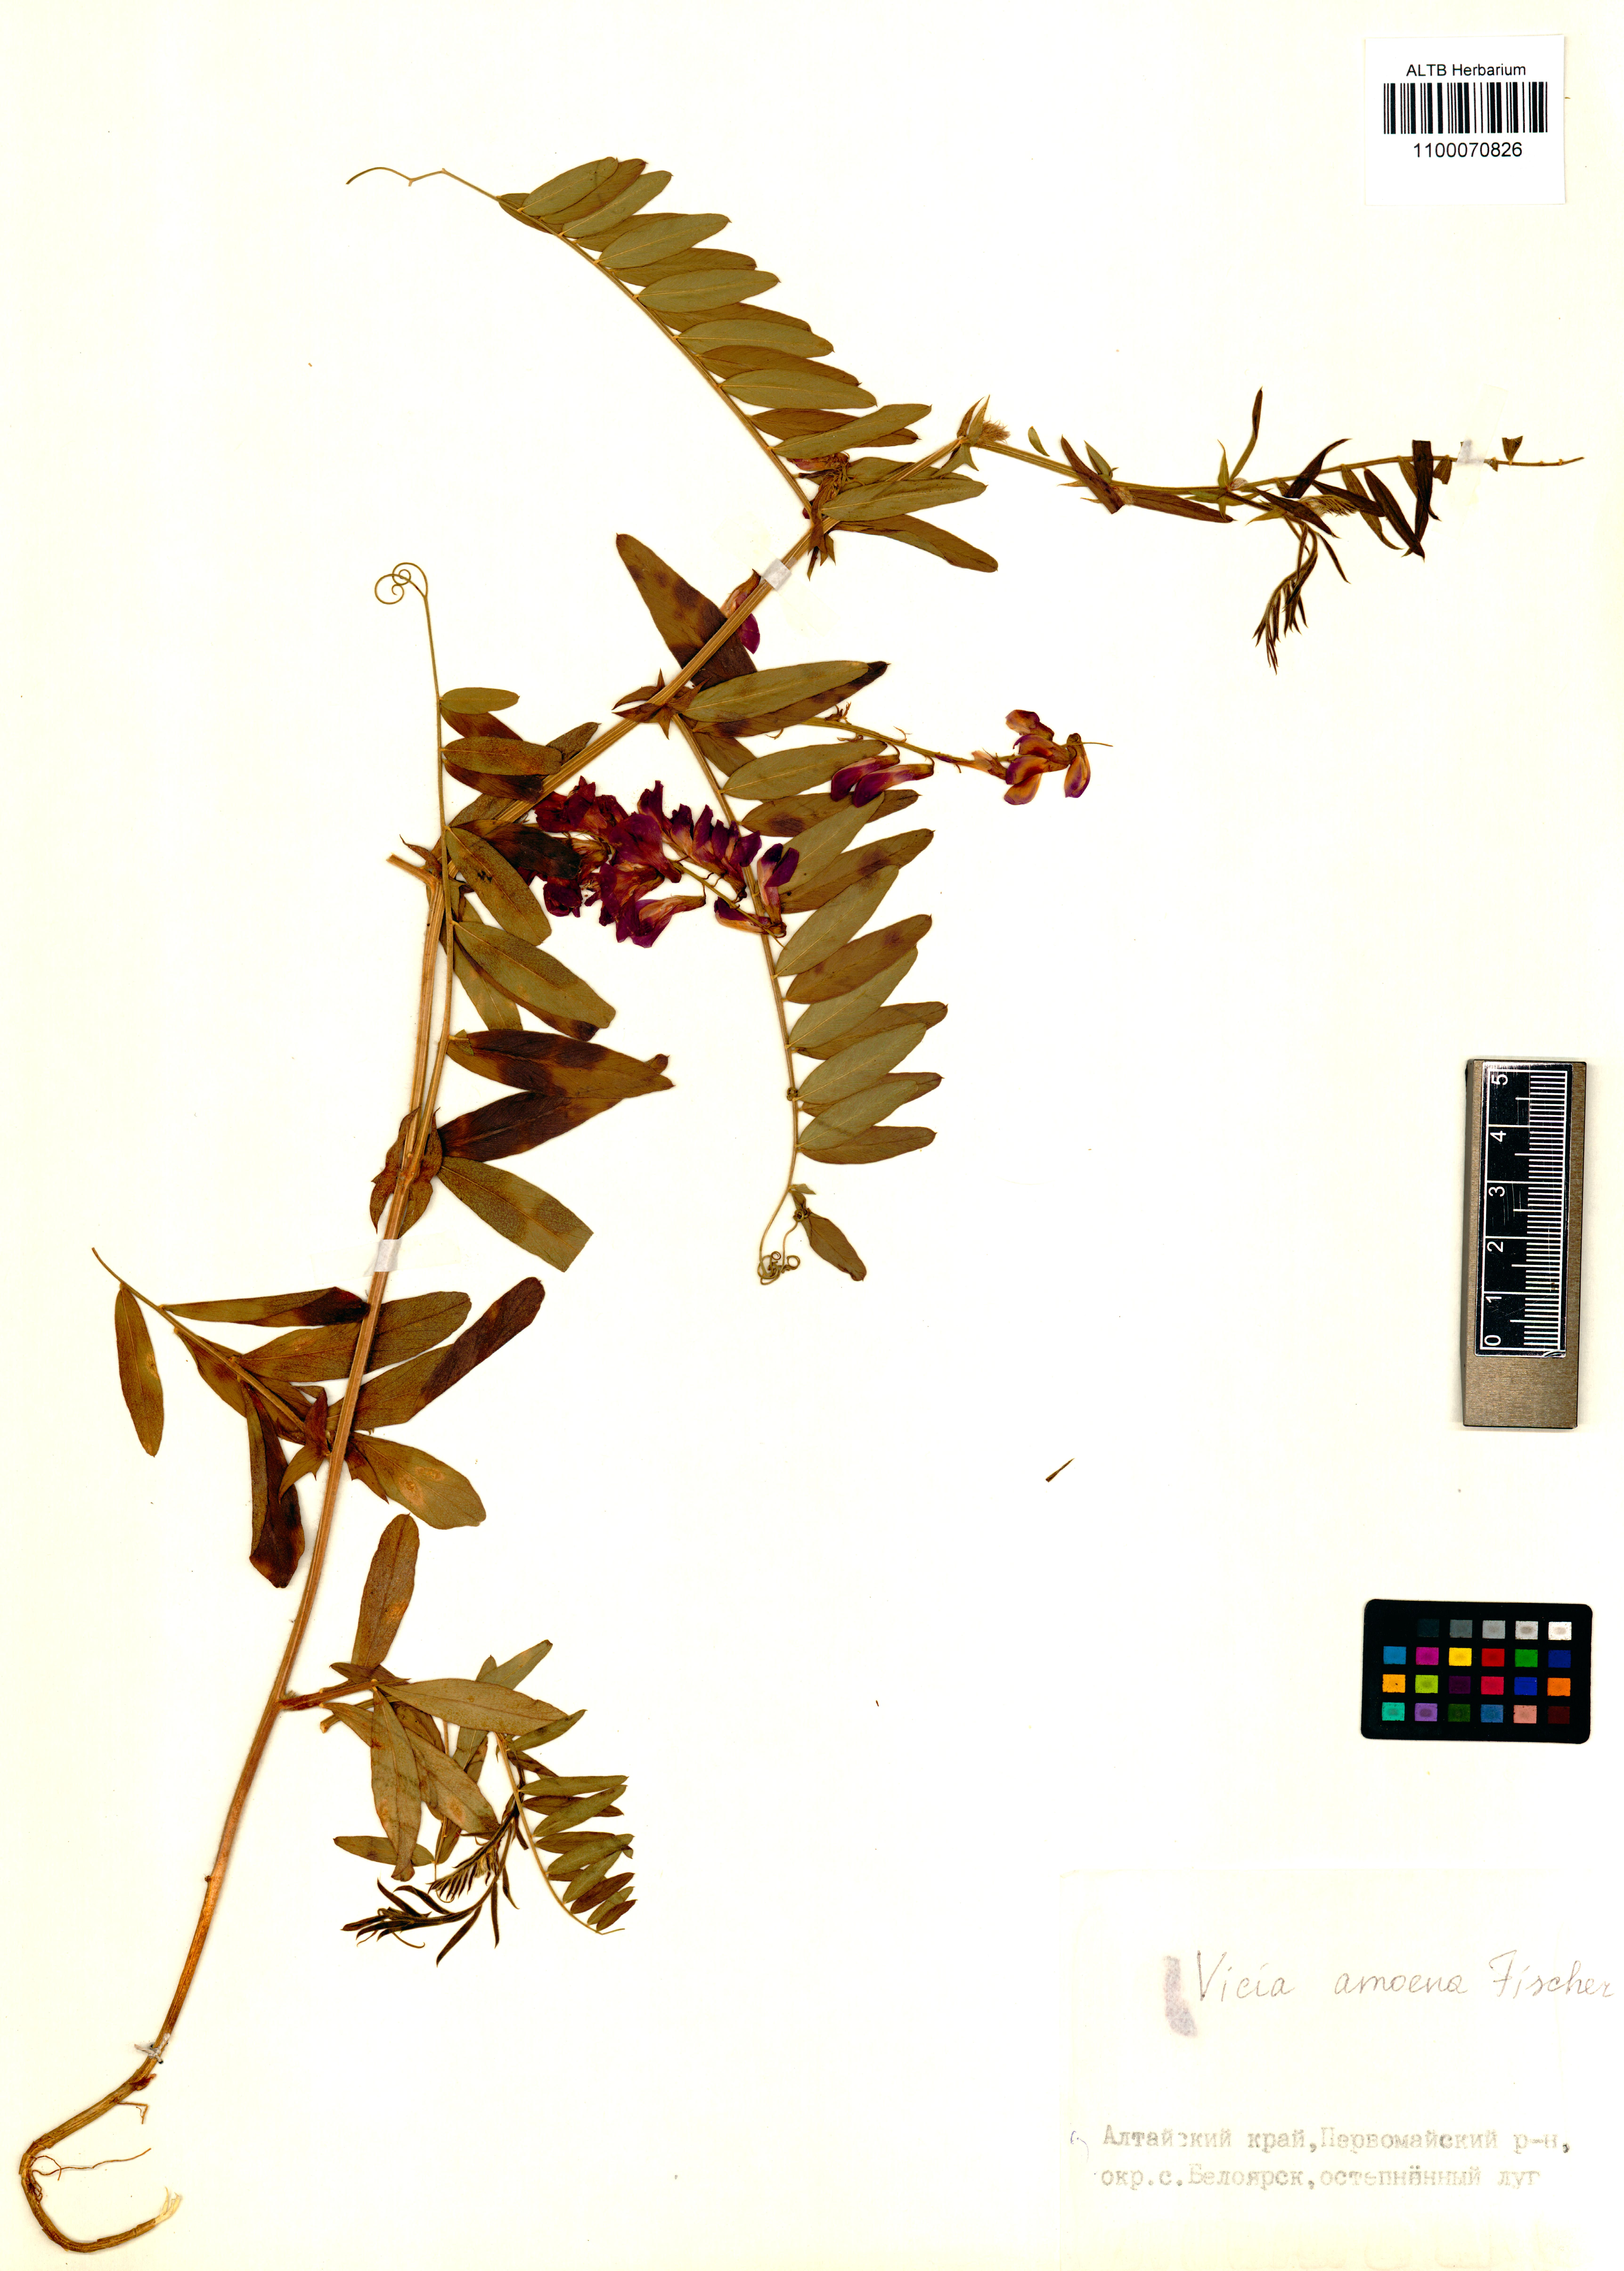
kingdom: Plantae
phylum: Tracheophyta
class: Magnoliopsida
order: Fabales
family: Fabaceae
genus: Vicia
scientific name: Vicia amoena
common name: Cheder ebs
